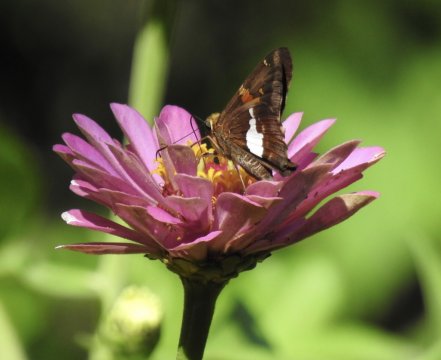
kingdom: Animalia
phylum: Arthropoda
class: Insecta
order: Lepidoptera
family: Hesperiidae
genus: Epargyreus
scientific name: Epargyreus clarus
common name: Silver-spotted Skipper
